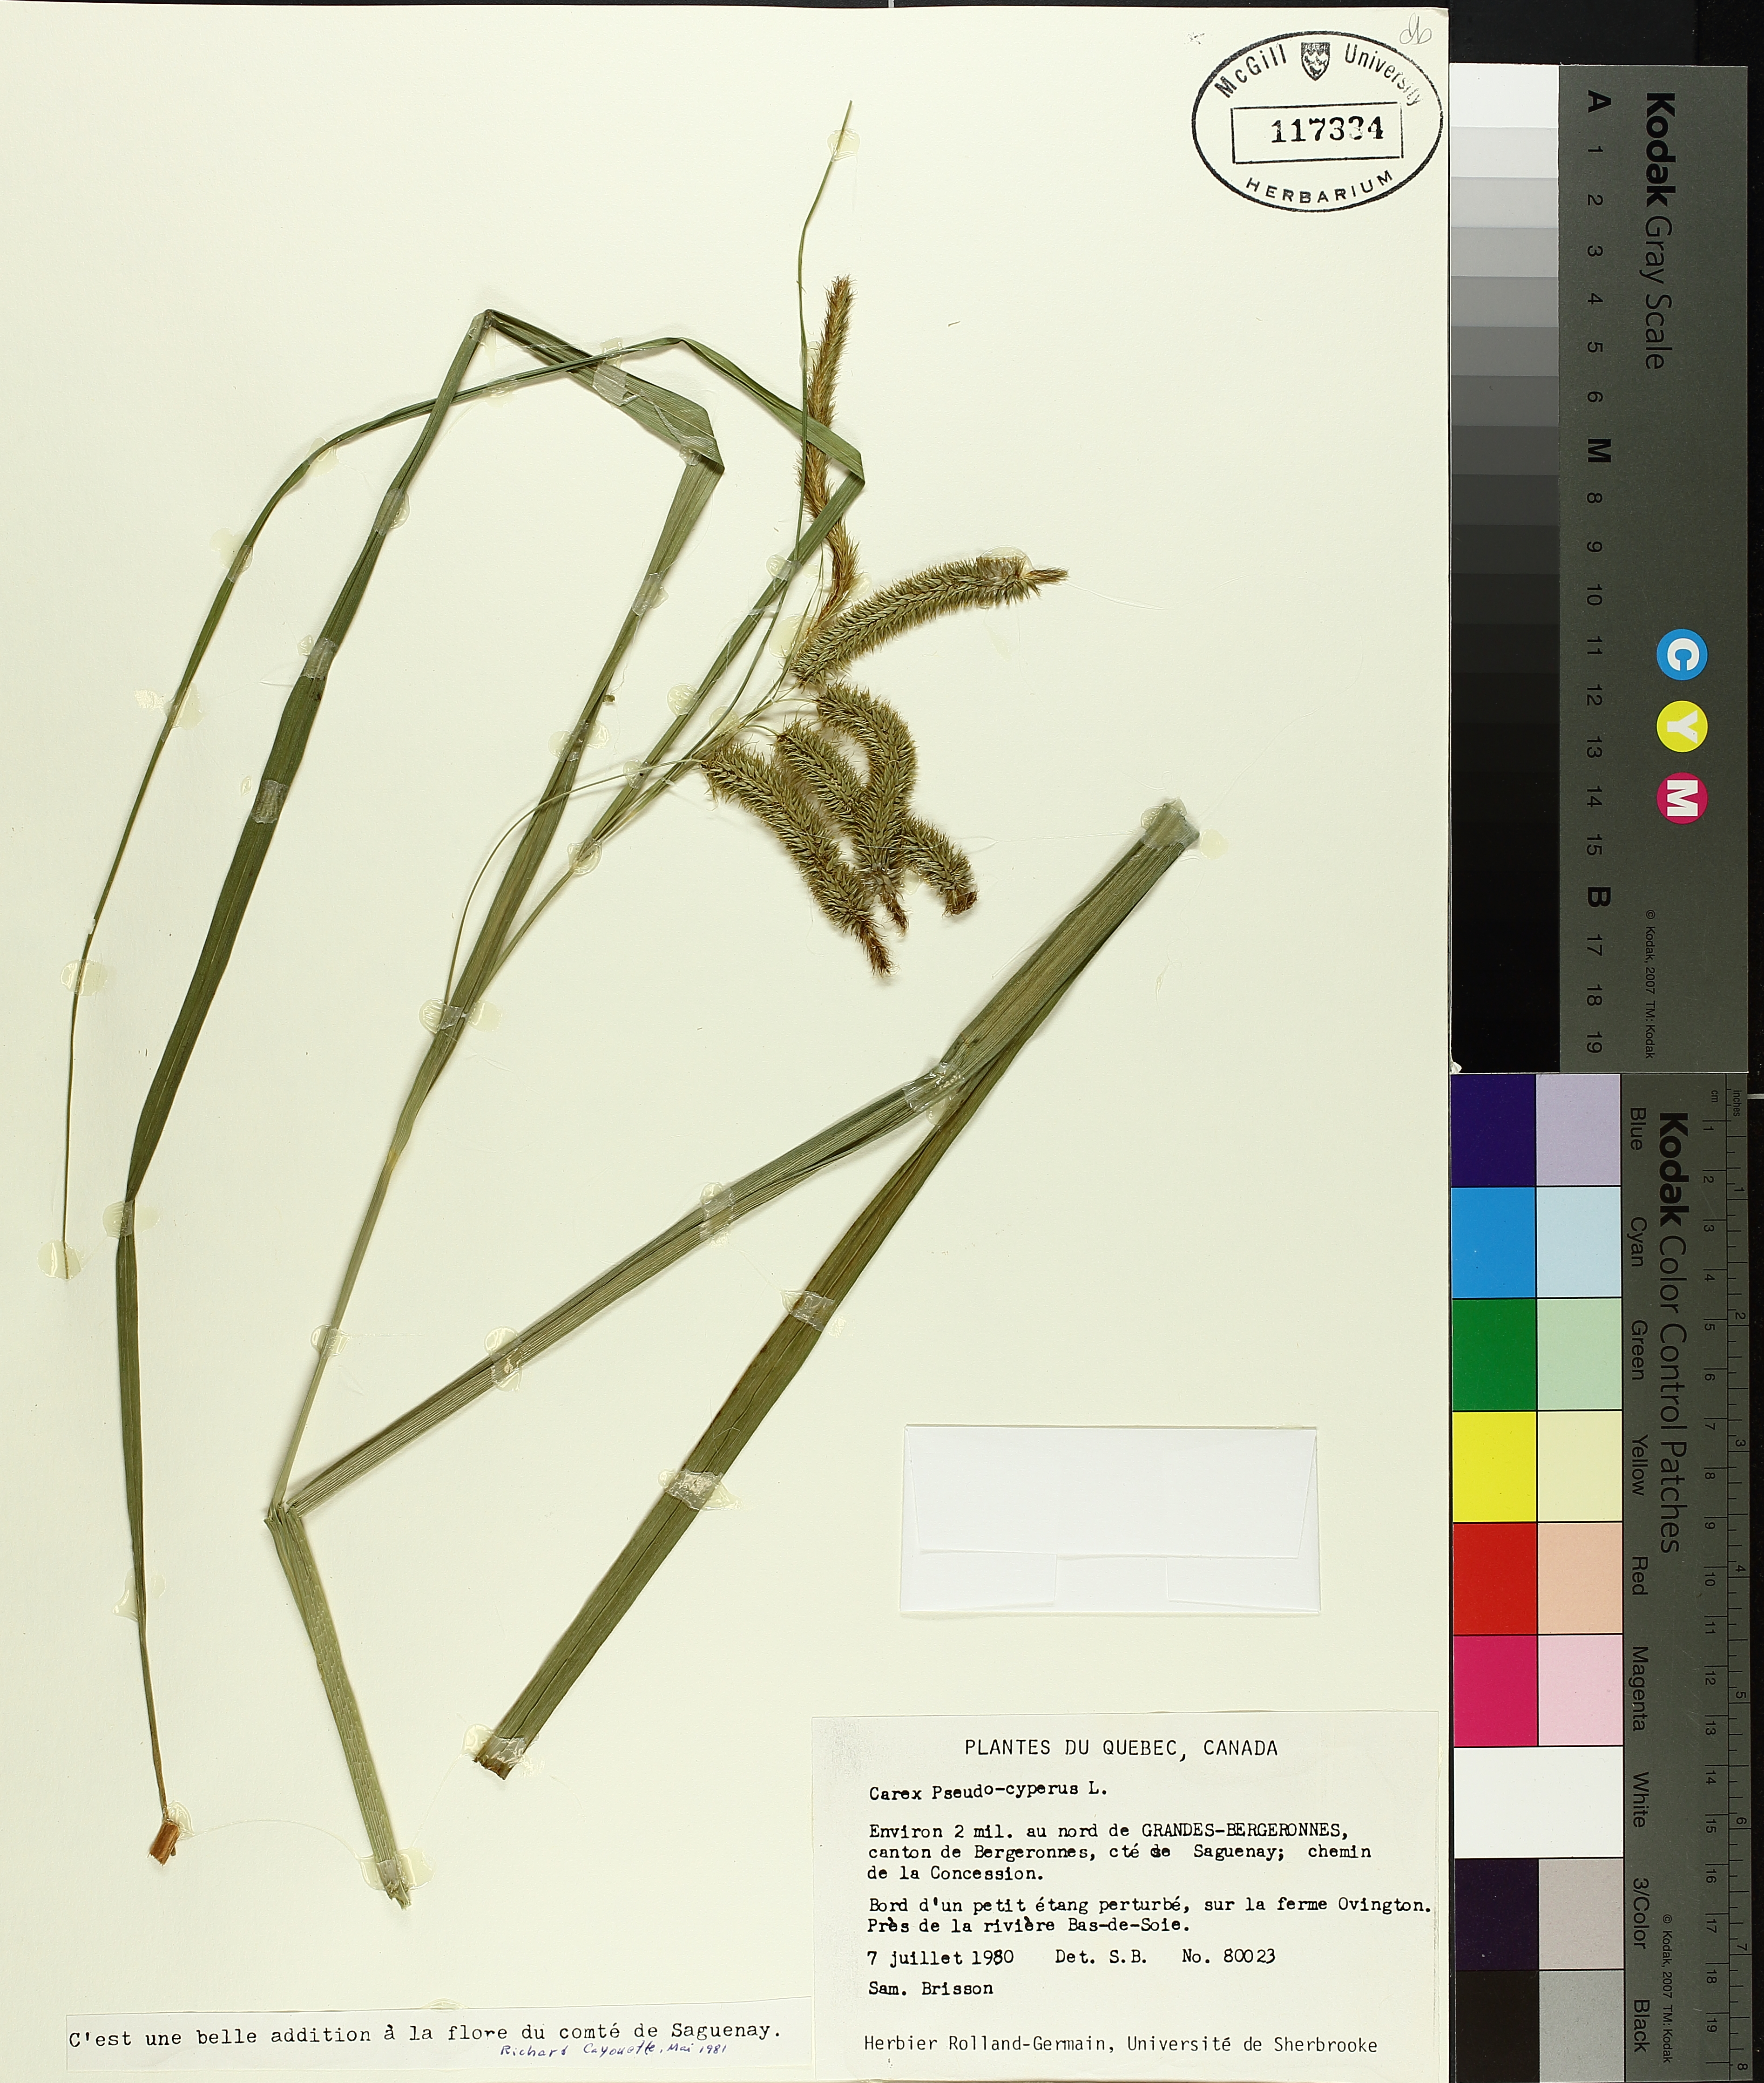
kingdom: Plantae
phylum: Tracheophyta
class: Liliopsida
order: Poales
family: Cyperaceae
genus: Carex
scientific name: Carex pseudocyperus
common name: Cyperus sedge
